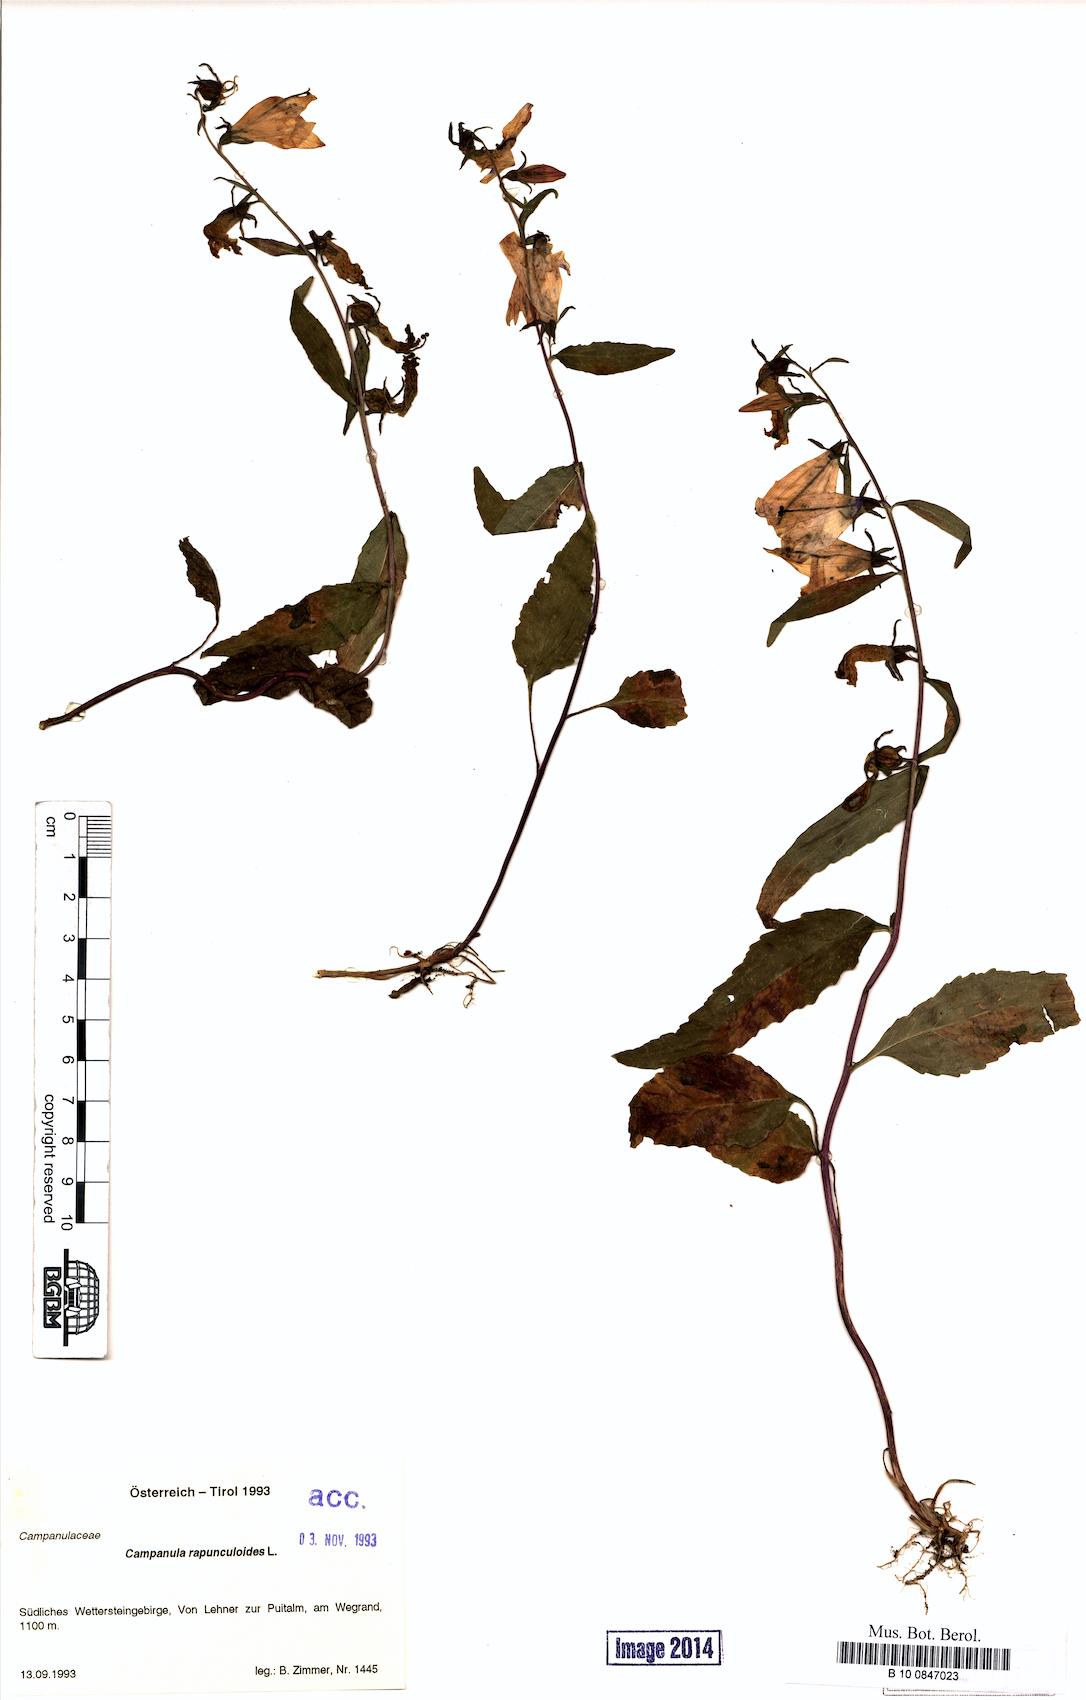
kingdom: Plantae
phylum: Tracheophyta
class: Magnoliopsida
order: Asterales
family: Campanulaceae
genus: Campanula
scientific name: Campanula rapunculoides
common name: Creeping bellflower
